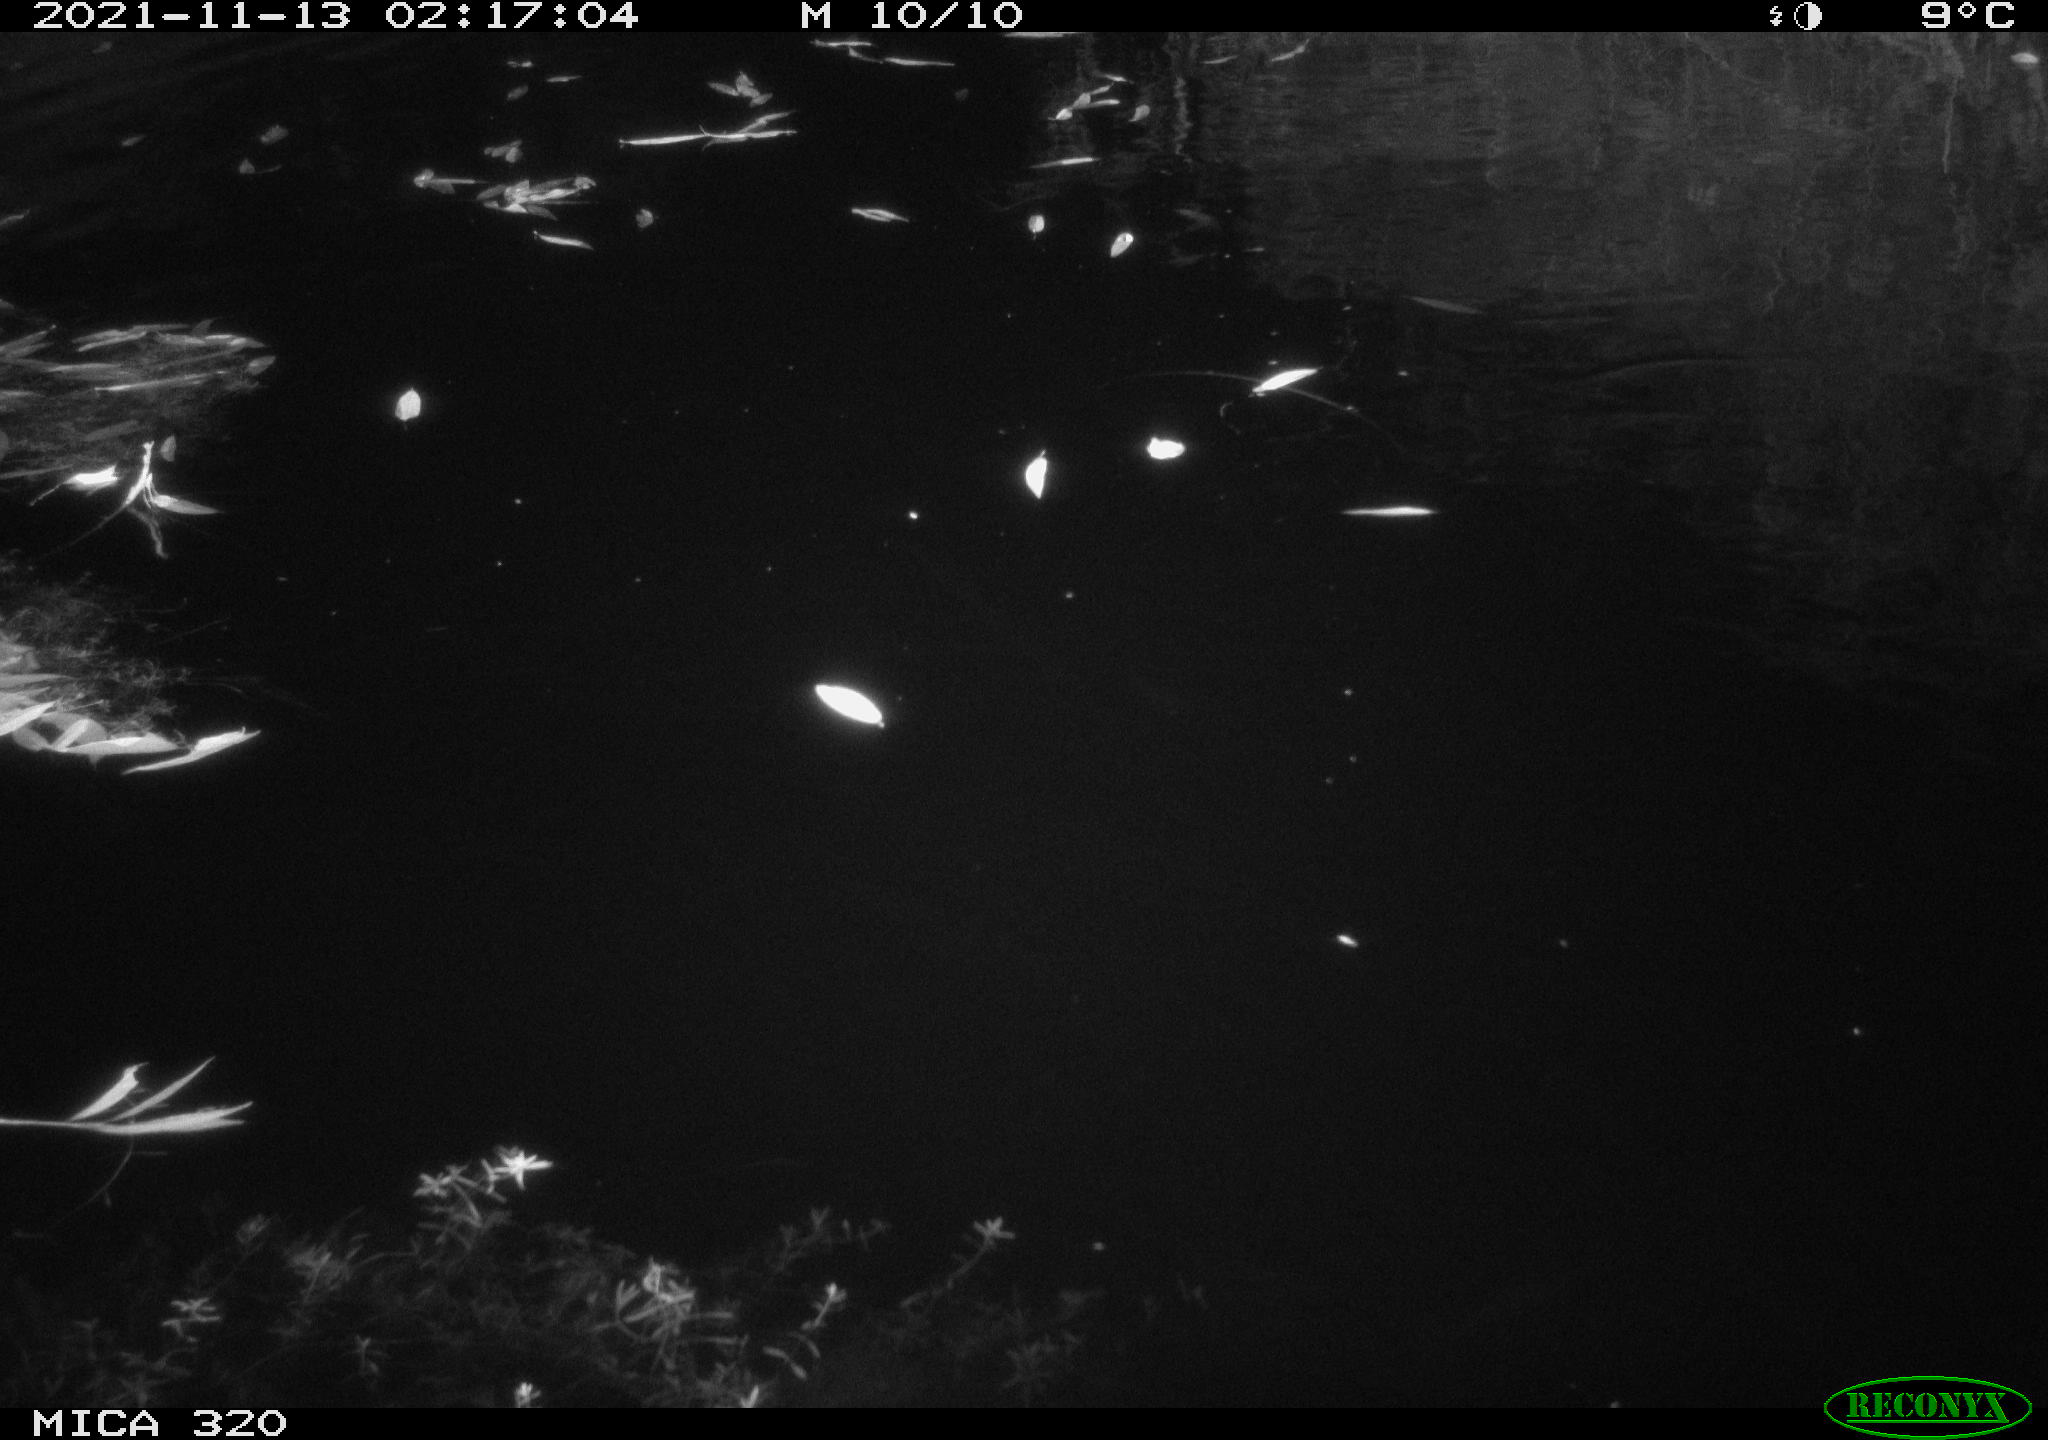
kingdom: Animalia
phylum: Chordata
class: Mammalia
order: Carnivora
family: Canidae
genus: Vulpes
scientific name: Vulpes vulpes
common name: Red fox
